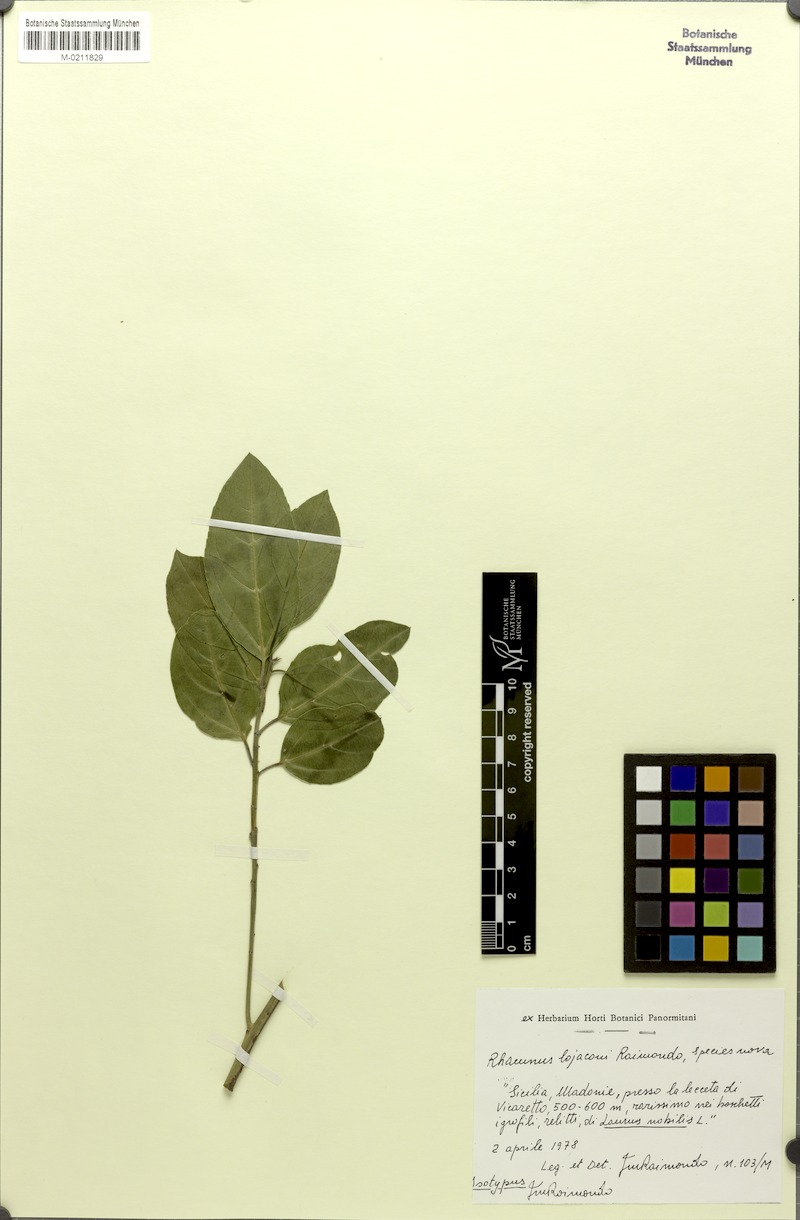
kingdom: Plantae
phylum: Tracheophyta
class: Magnoliopsida
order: Rosales
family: Rhamnaceae
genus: Rhamnus
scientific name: Rhamnus lojaconoi
